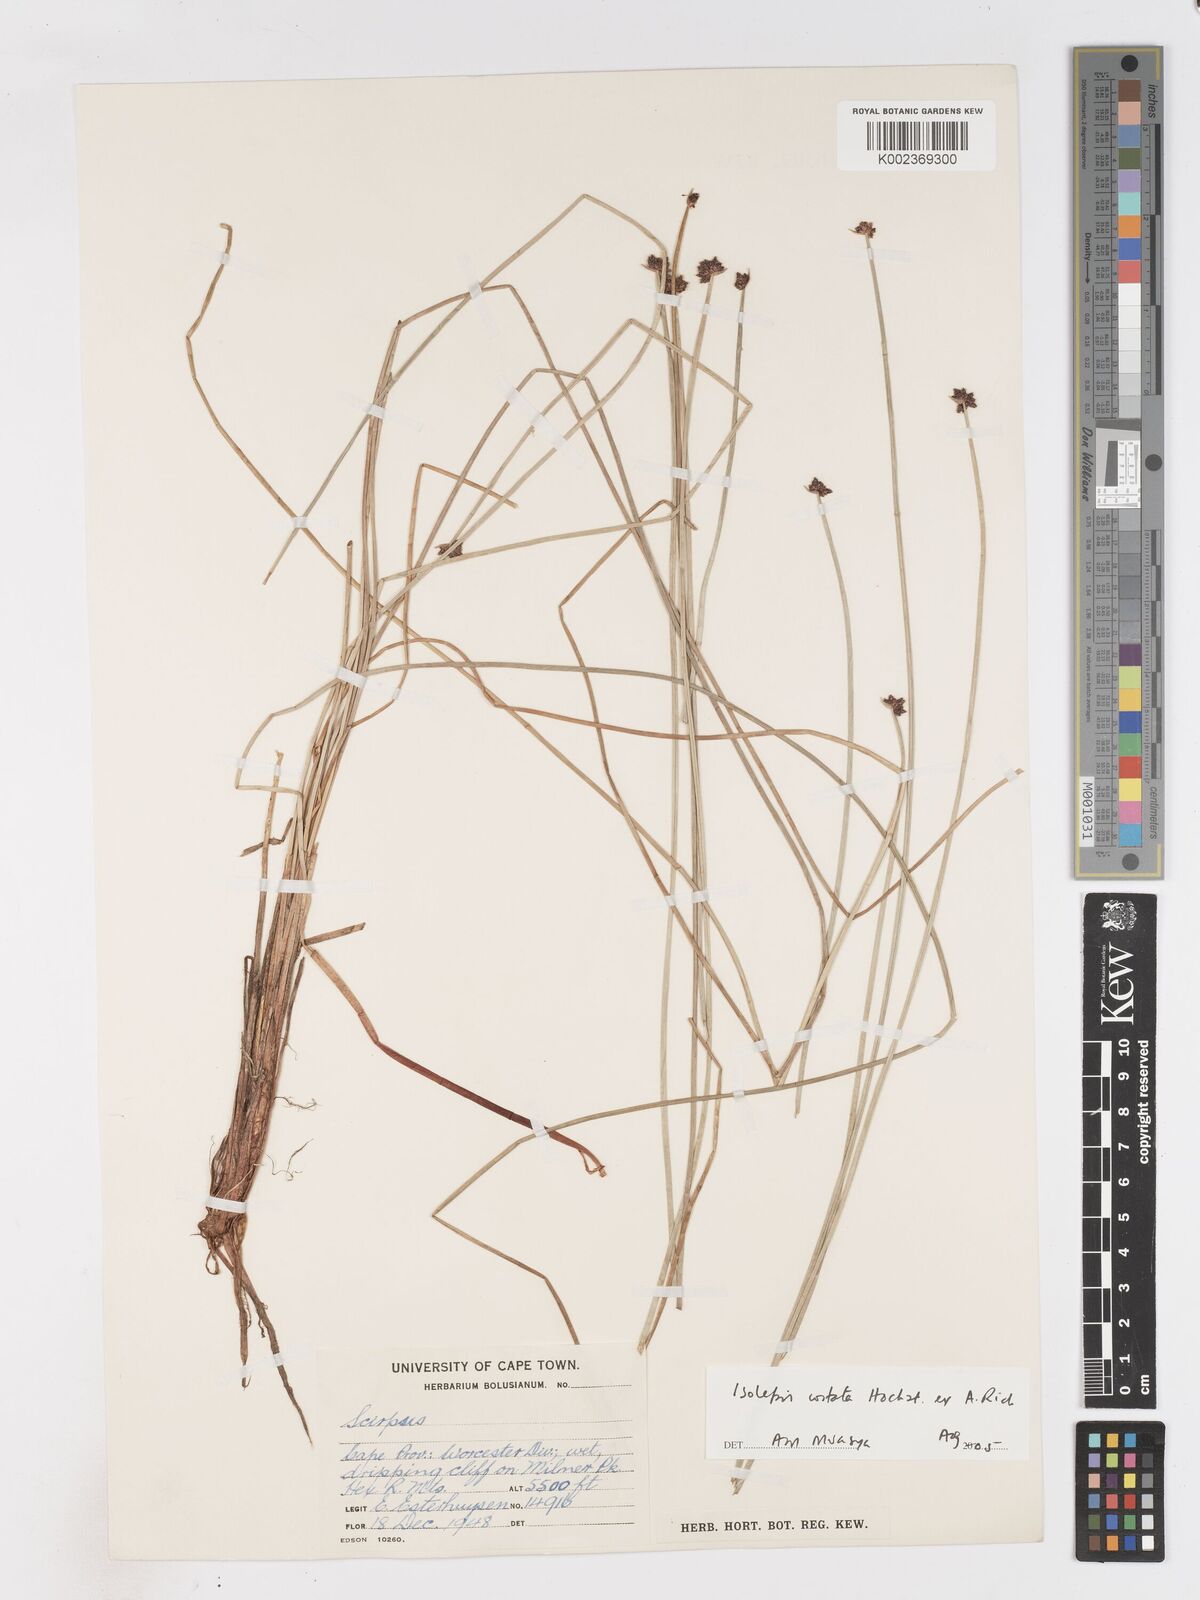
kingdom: Plantae
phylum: Tracheophyta
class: Liliopsida
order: Poales
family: Cyperaceae
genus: Isolepis
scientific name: Isolepis costata
